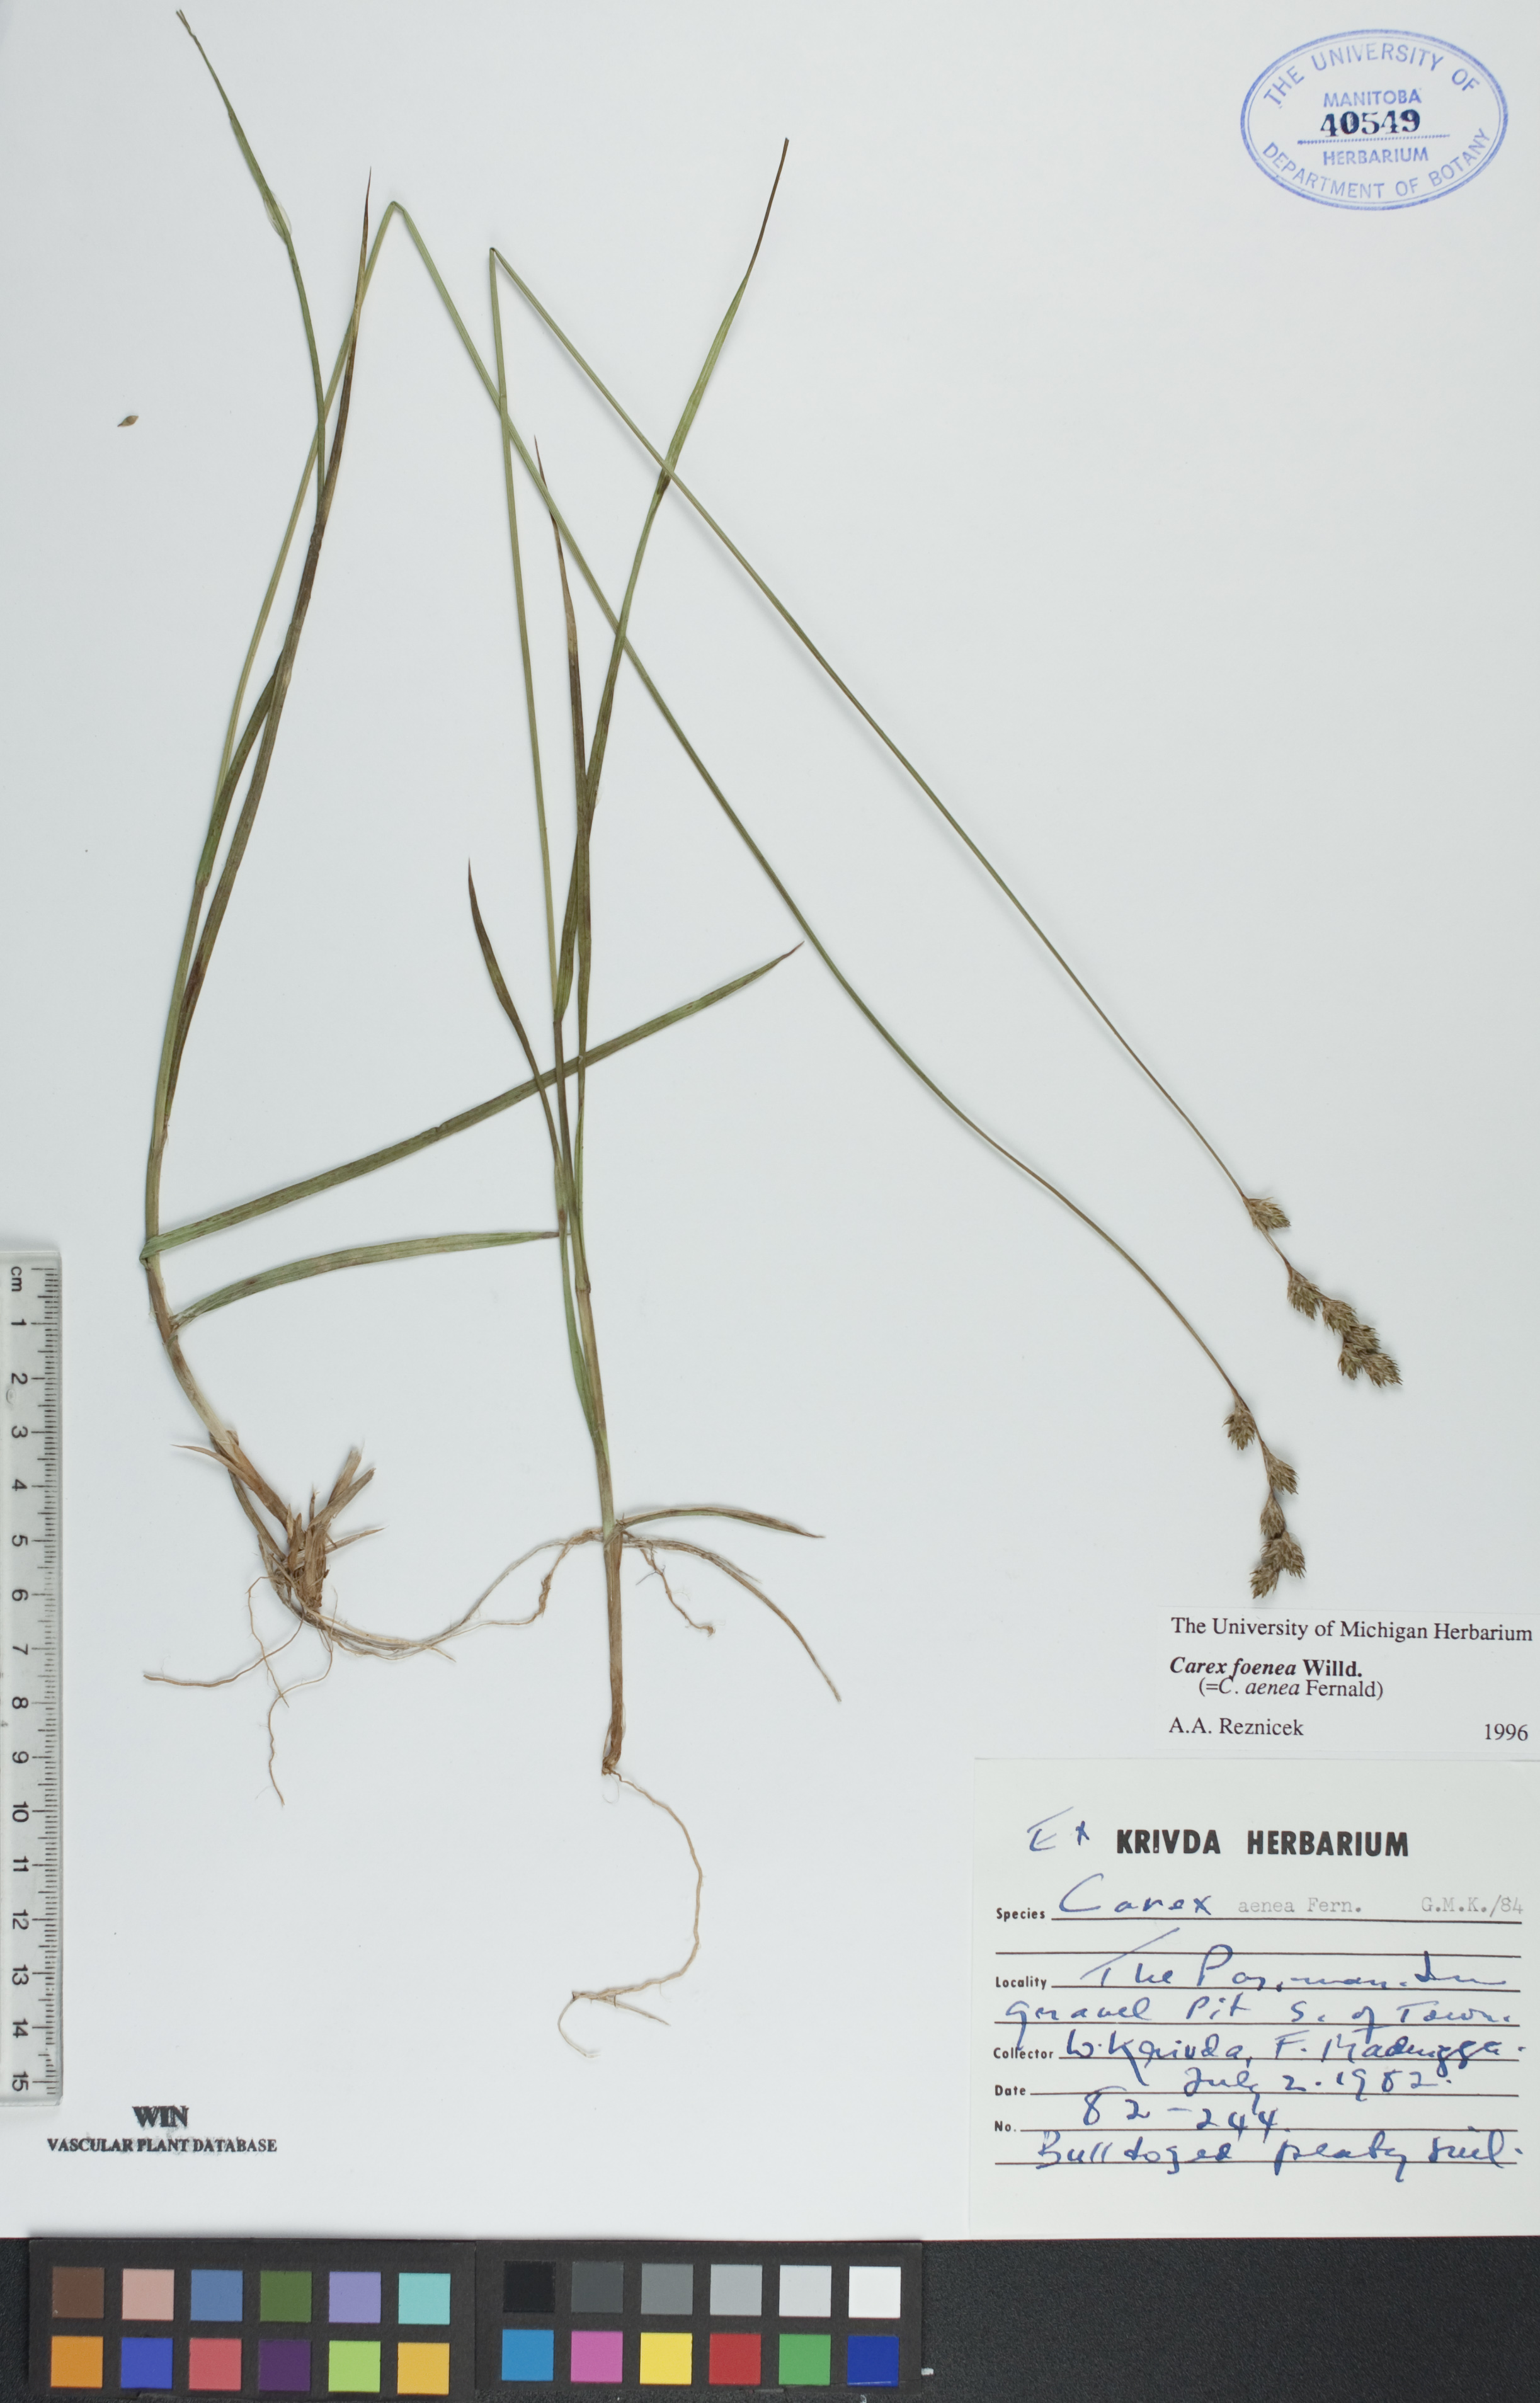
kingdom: Plantae
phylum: Tracheophyta
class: Liliopsida
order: Poales
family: Cyperaceae
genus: Carex
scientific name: Carex foenea
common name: Bronze sedge
